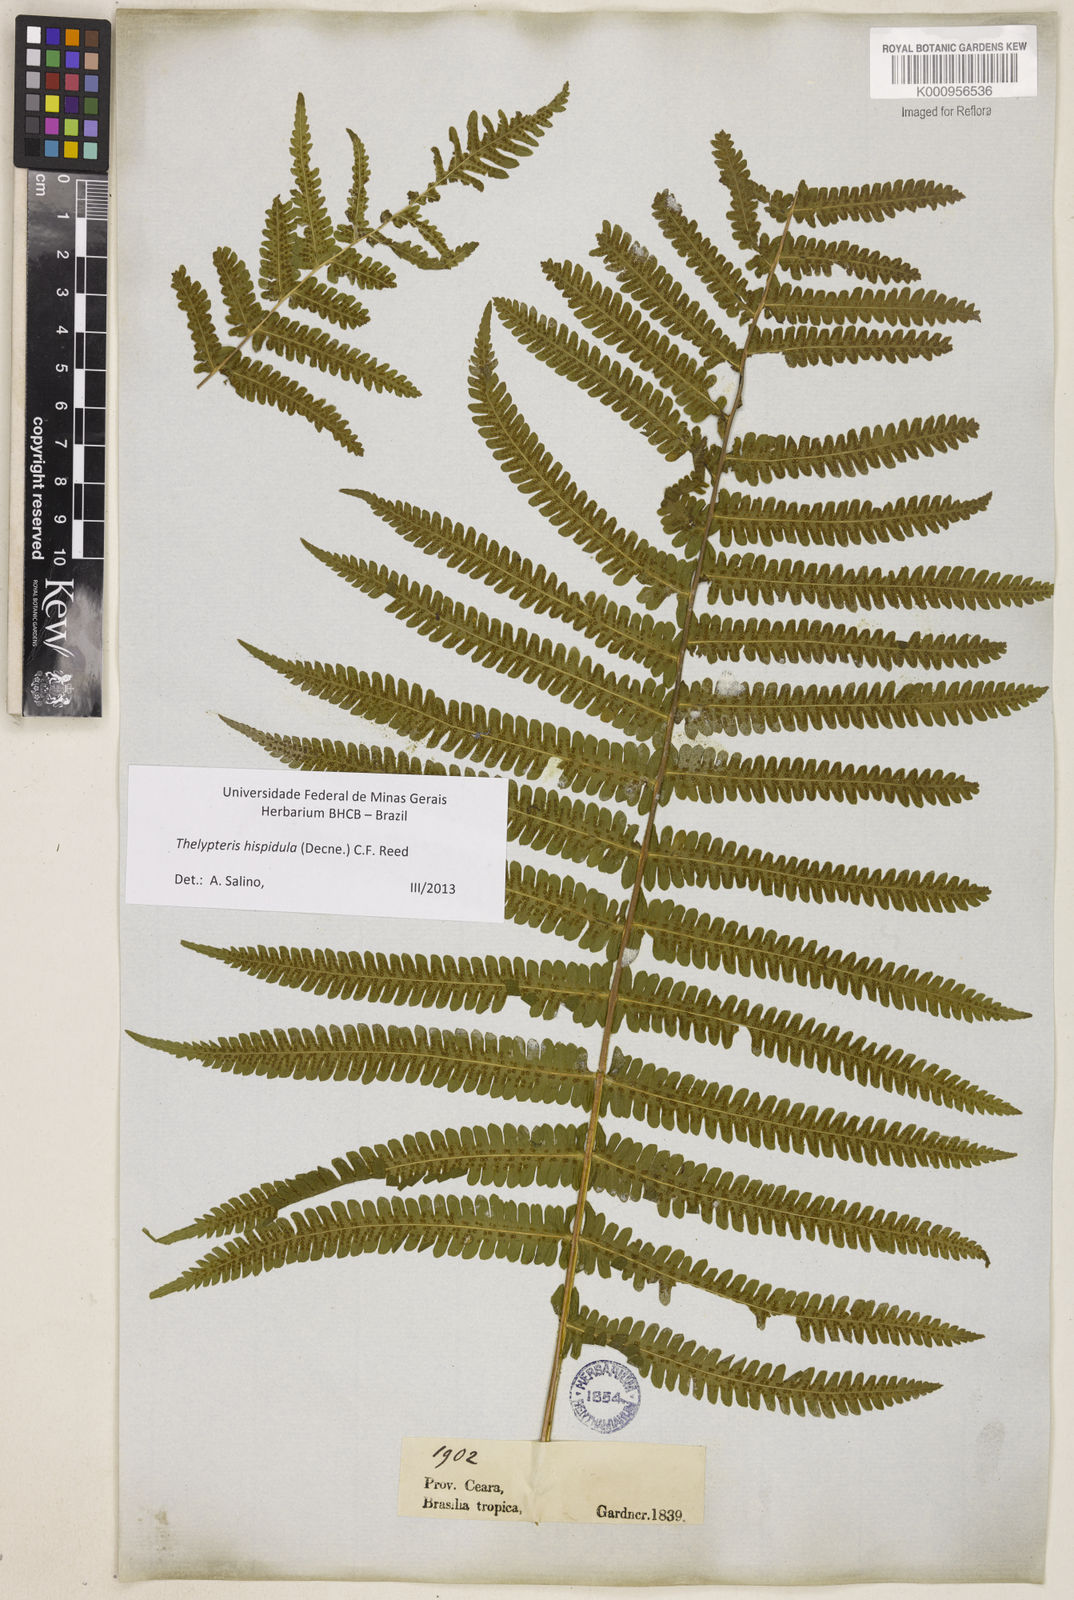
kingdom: Plantae
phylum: Tracheophyta
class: Polypodiopsida
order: Polypodiales
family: Thelypteridaceae
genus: Christella
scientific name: Christella hispidula
